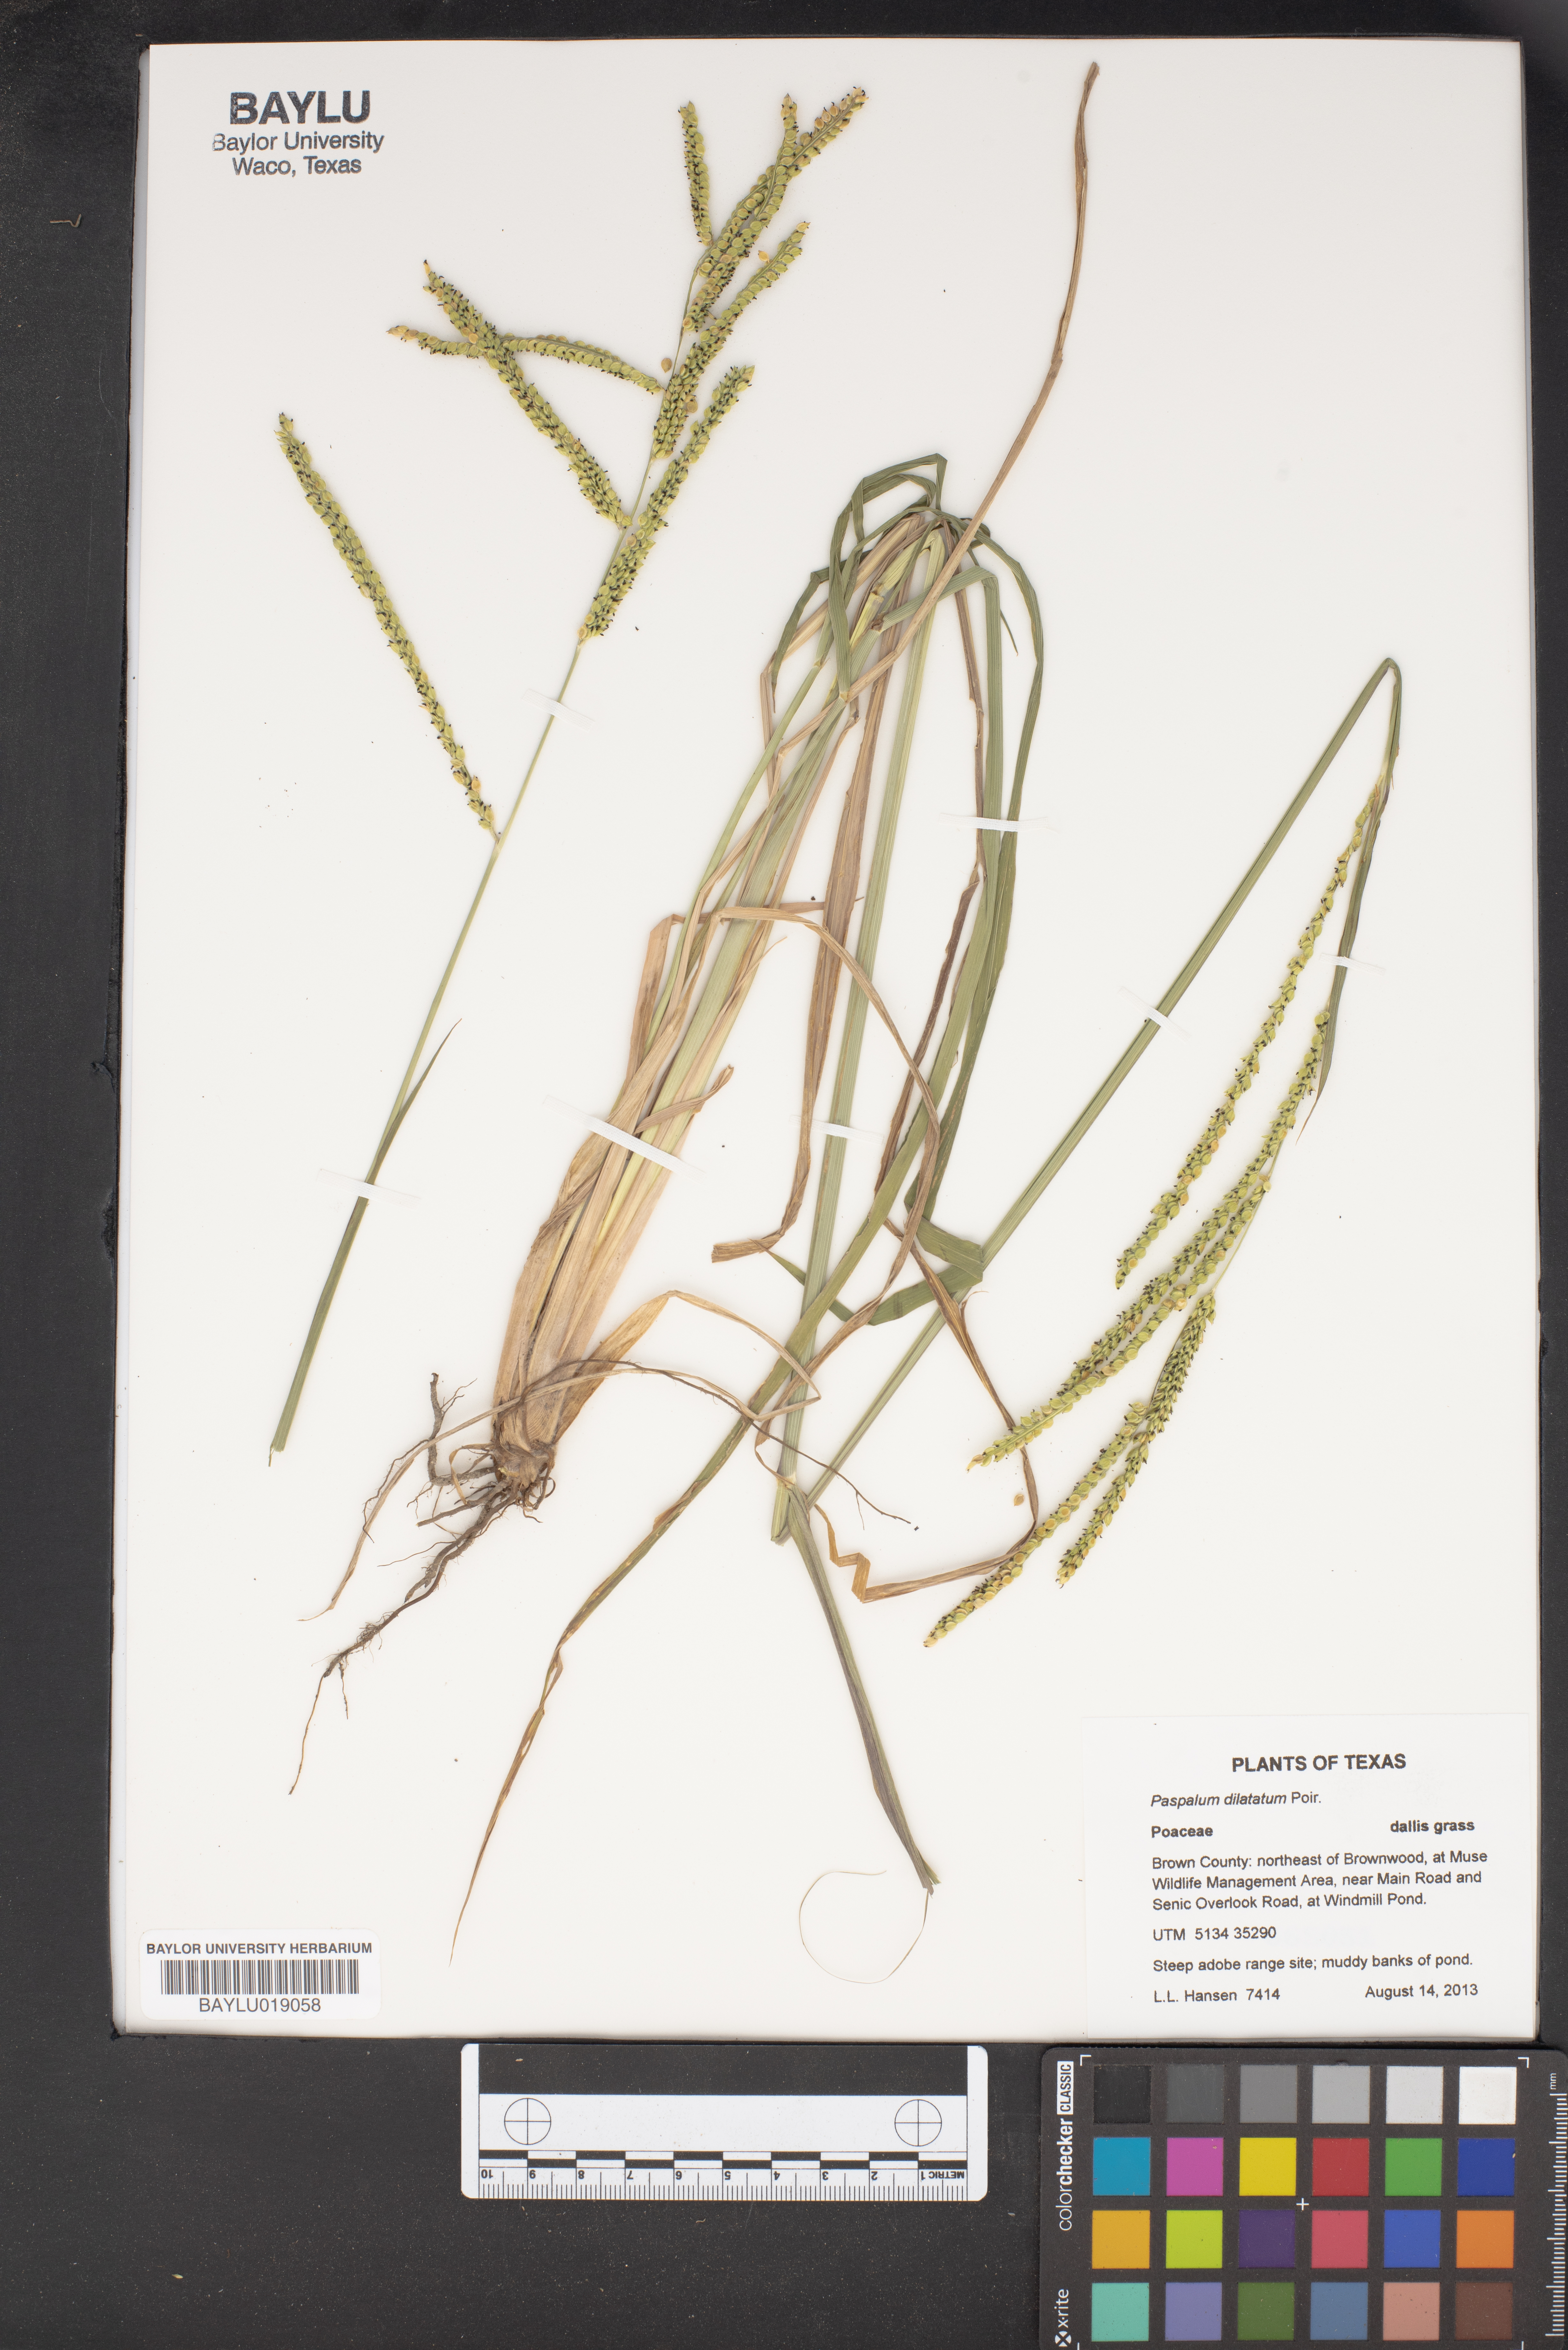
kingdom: Plantae
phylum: Tracheophyta
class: Liliopsida
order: Poales
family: Poaceae
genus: Paspalum
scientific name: Paspalum dilatatum
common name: Dallisgrass
